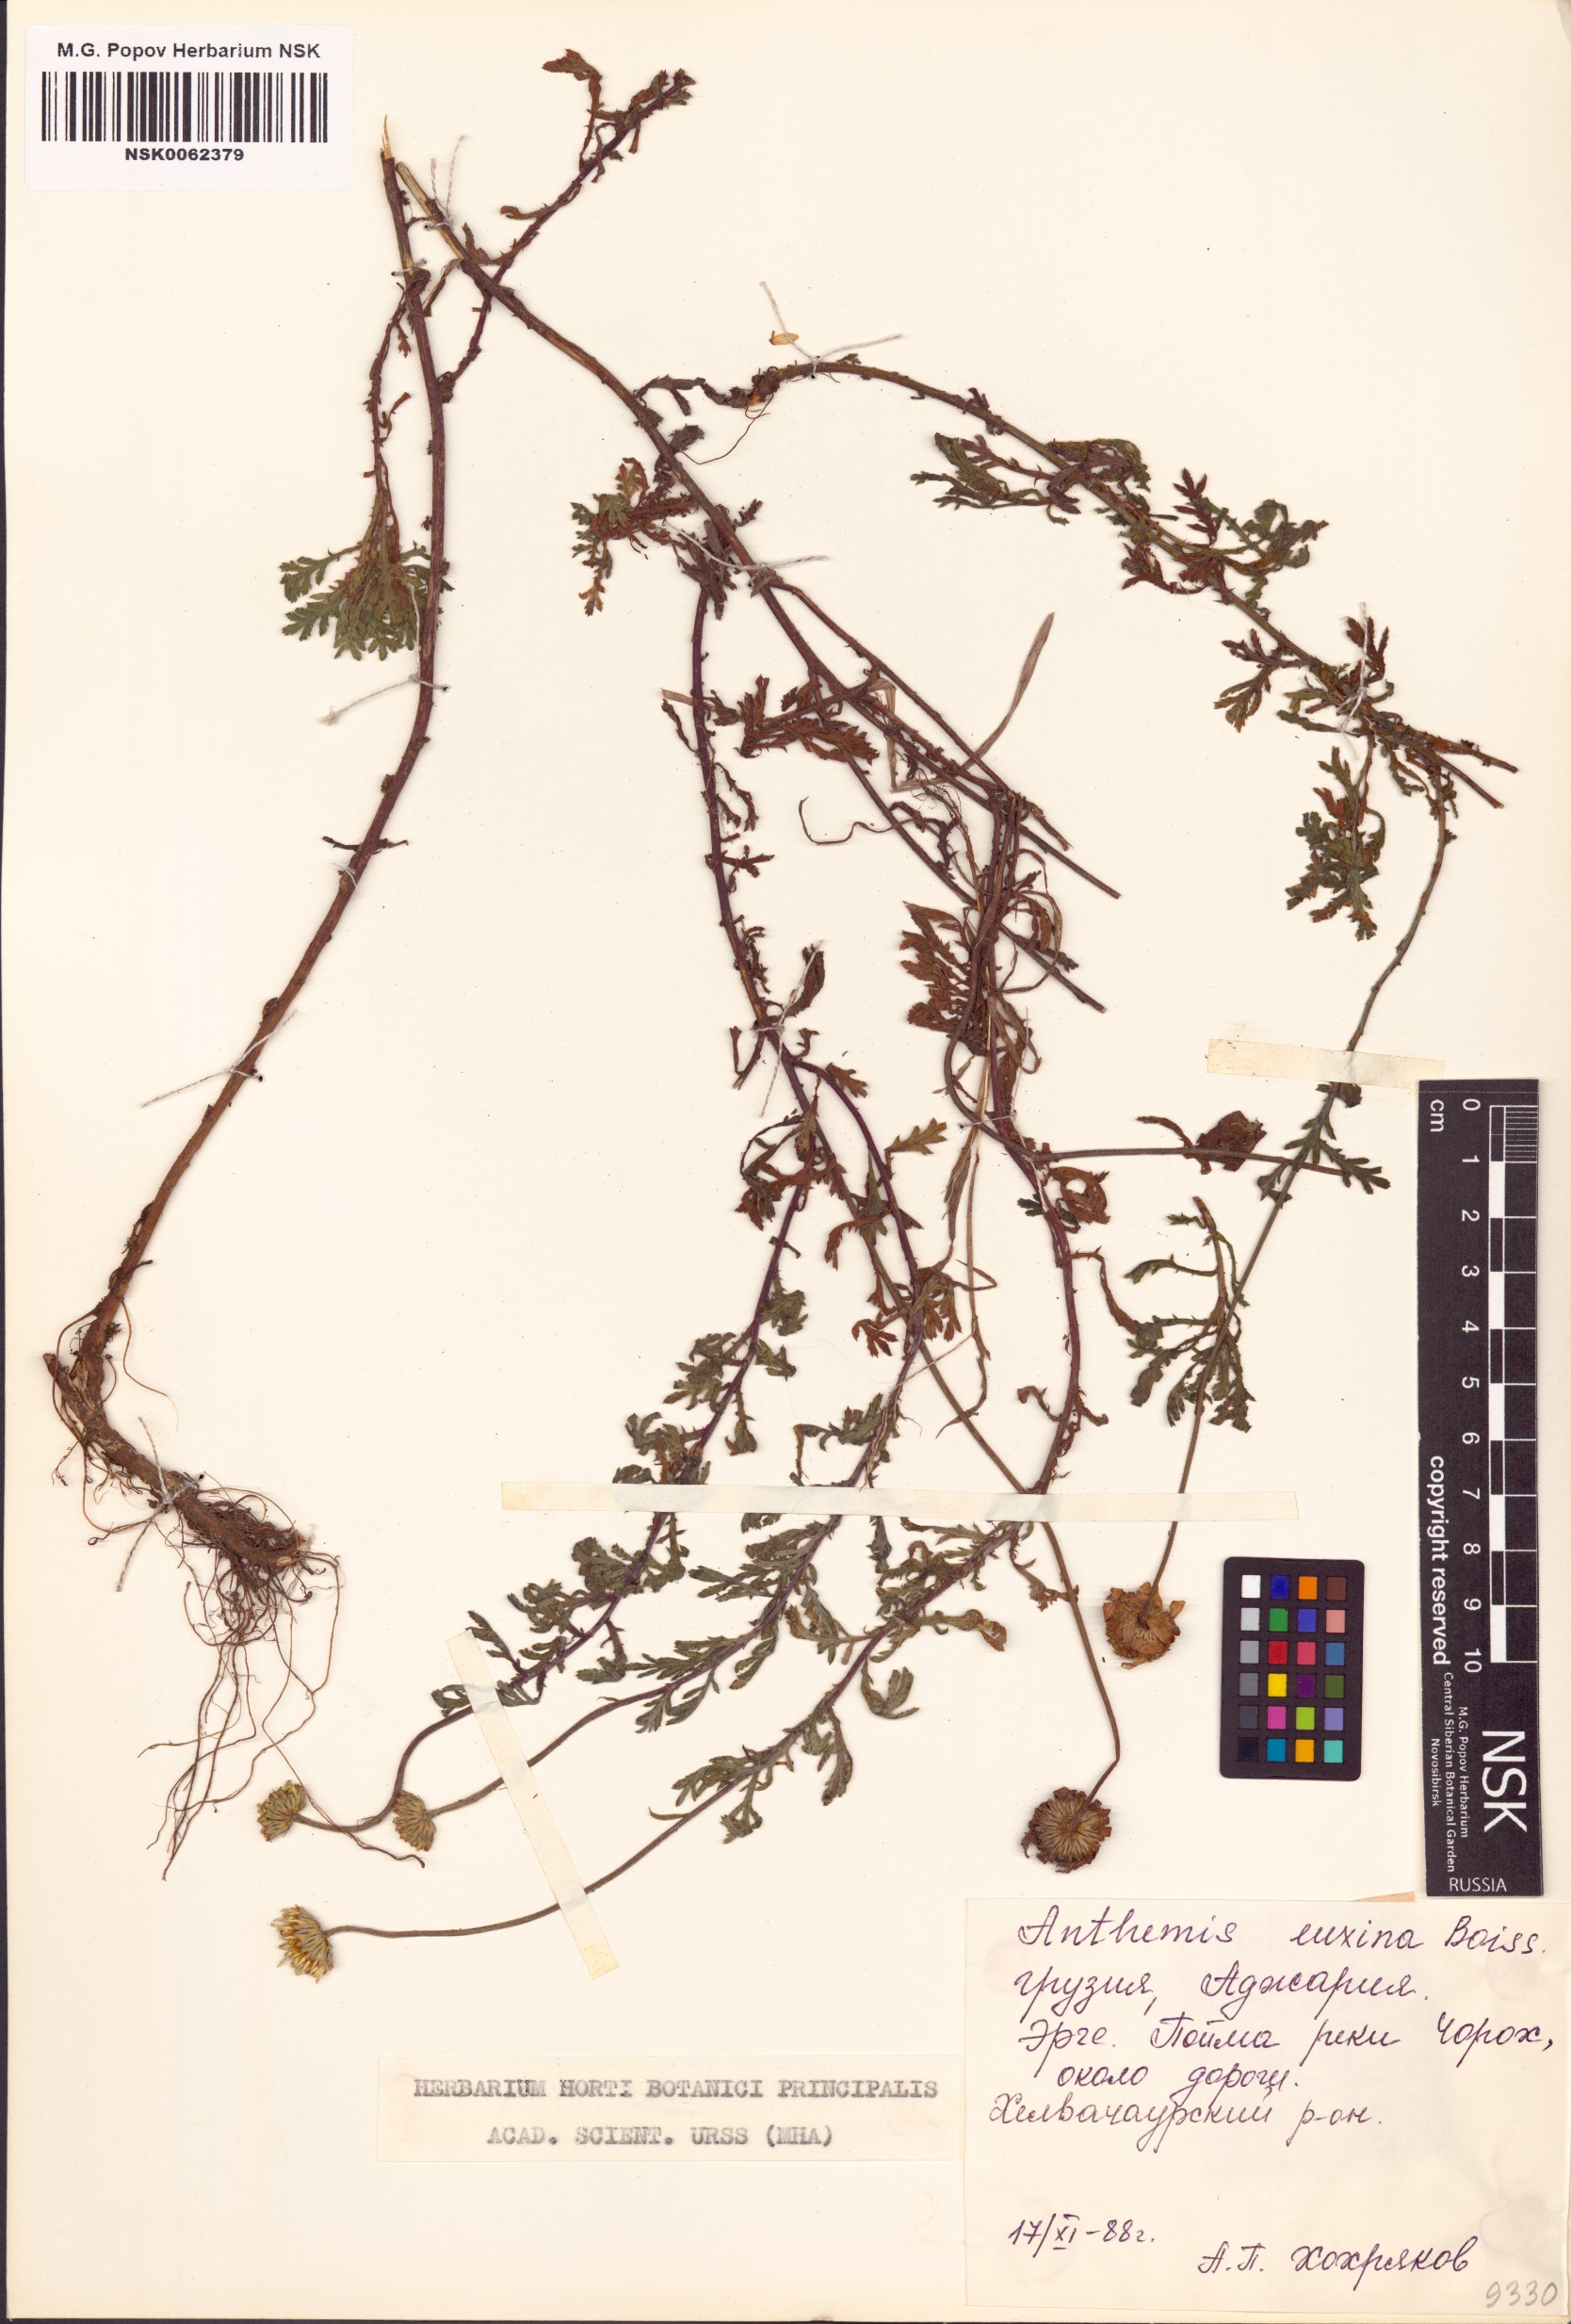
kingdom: Plantae
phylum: Tracheophyta
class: Magnoliopsida
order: Asterales
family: Asteraceae
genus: Cota
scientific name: Cota tinctoria
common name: Golden chamomile
